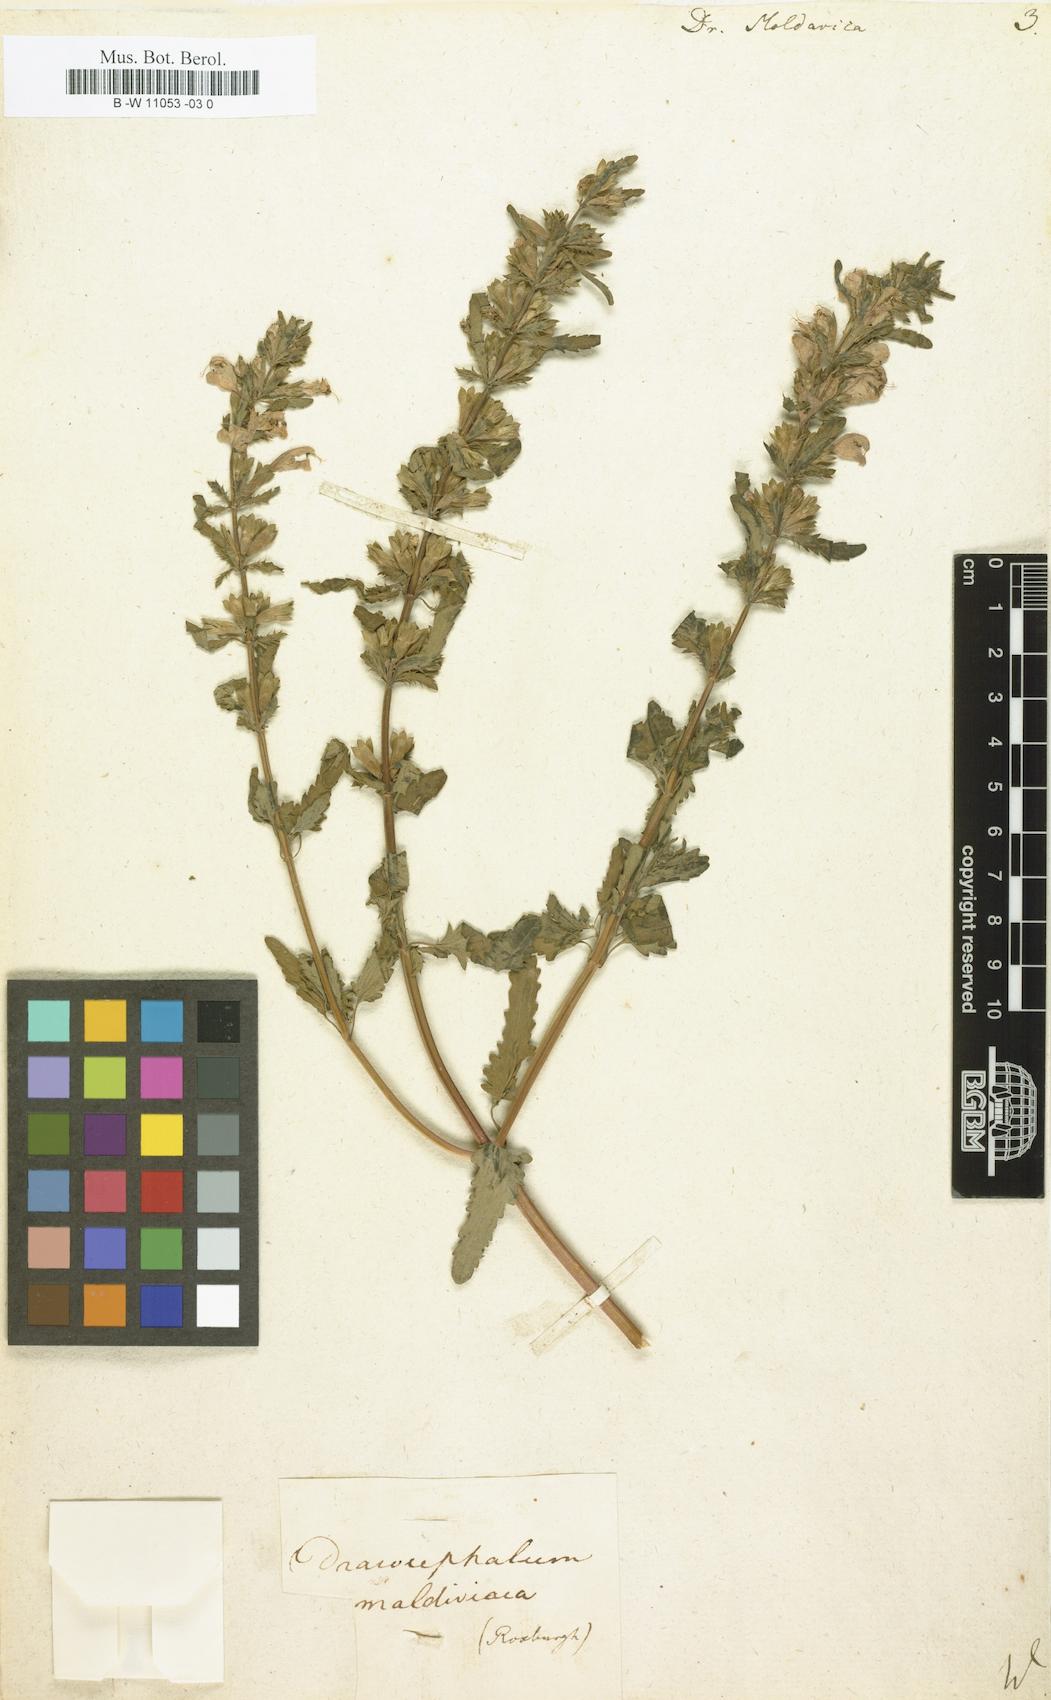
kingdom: Plantae
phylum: Tracheophyta
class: Magnoliopsida
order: Lamiales
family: Lamiaceae
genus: Dracocephalum
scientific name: Dracocephalum moldavica
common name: Moldavian dragonhead
